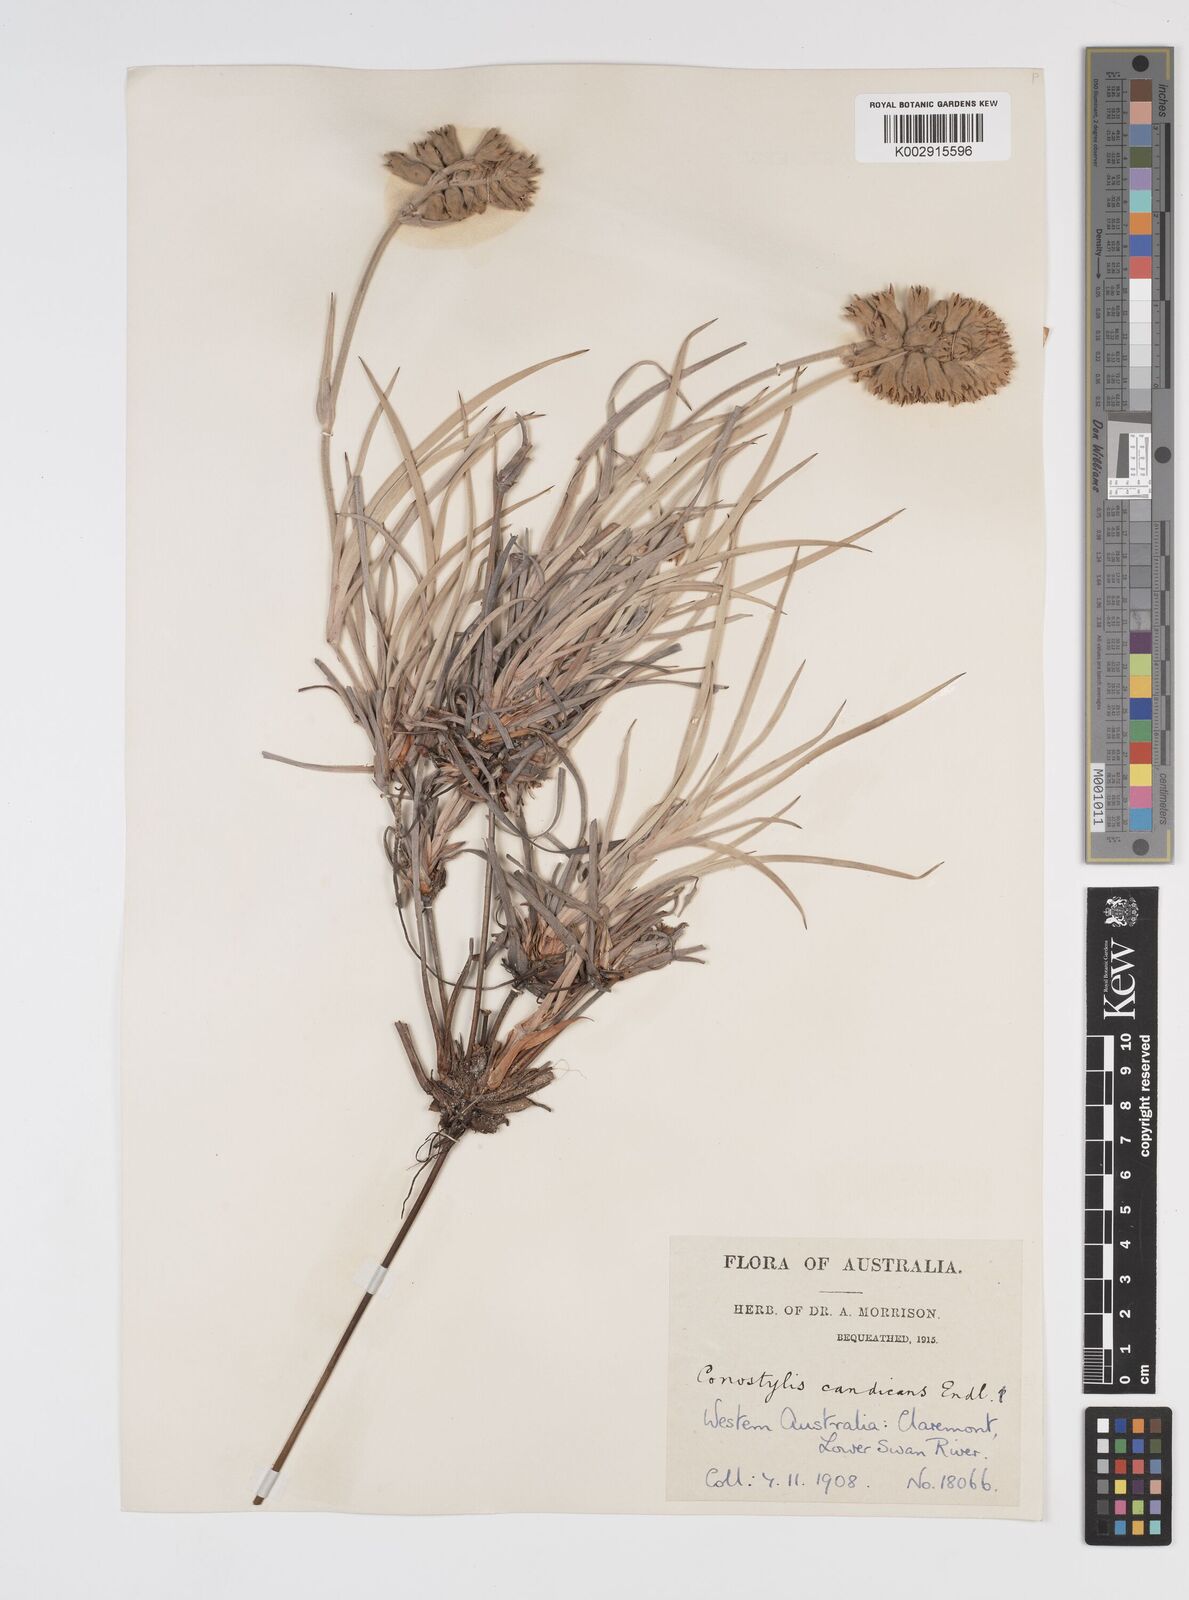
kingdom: Plantae
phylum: Tracheophyta
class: Liliopsida
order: Commelinales
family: Haemodoraceae
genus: Conostylis
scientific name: Conostylis candicans
